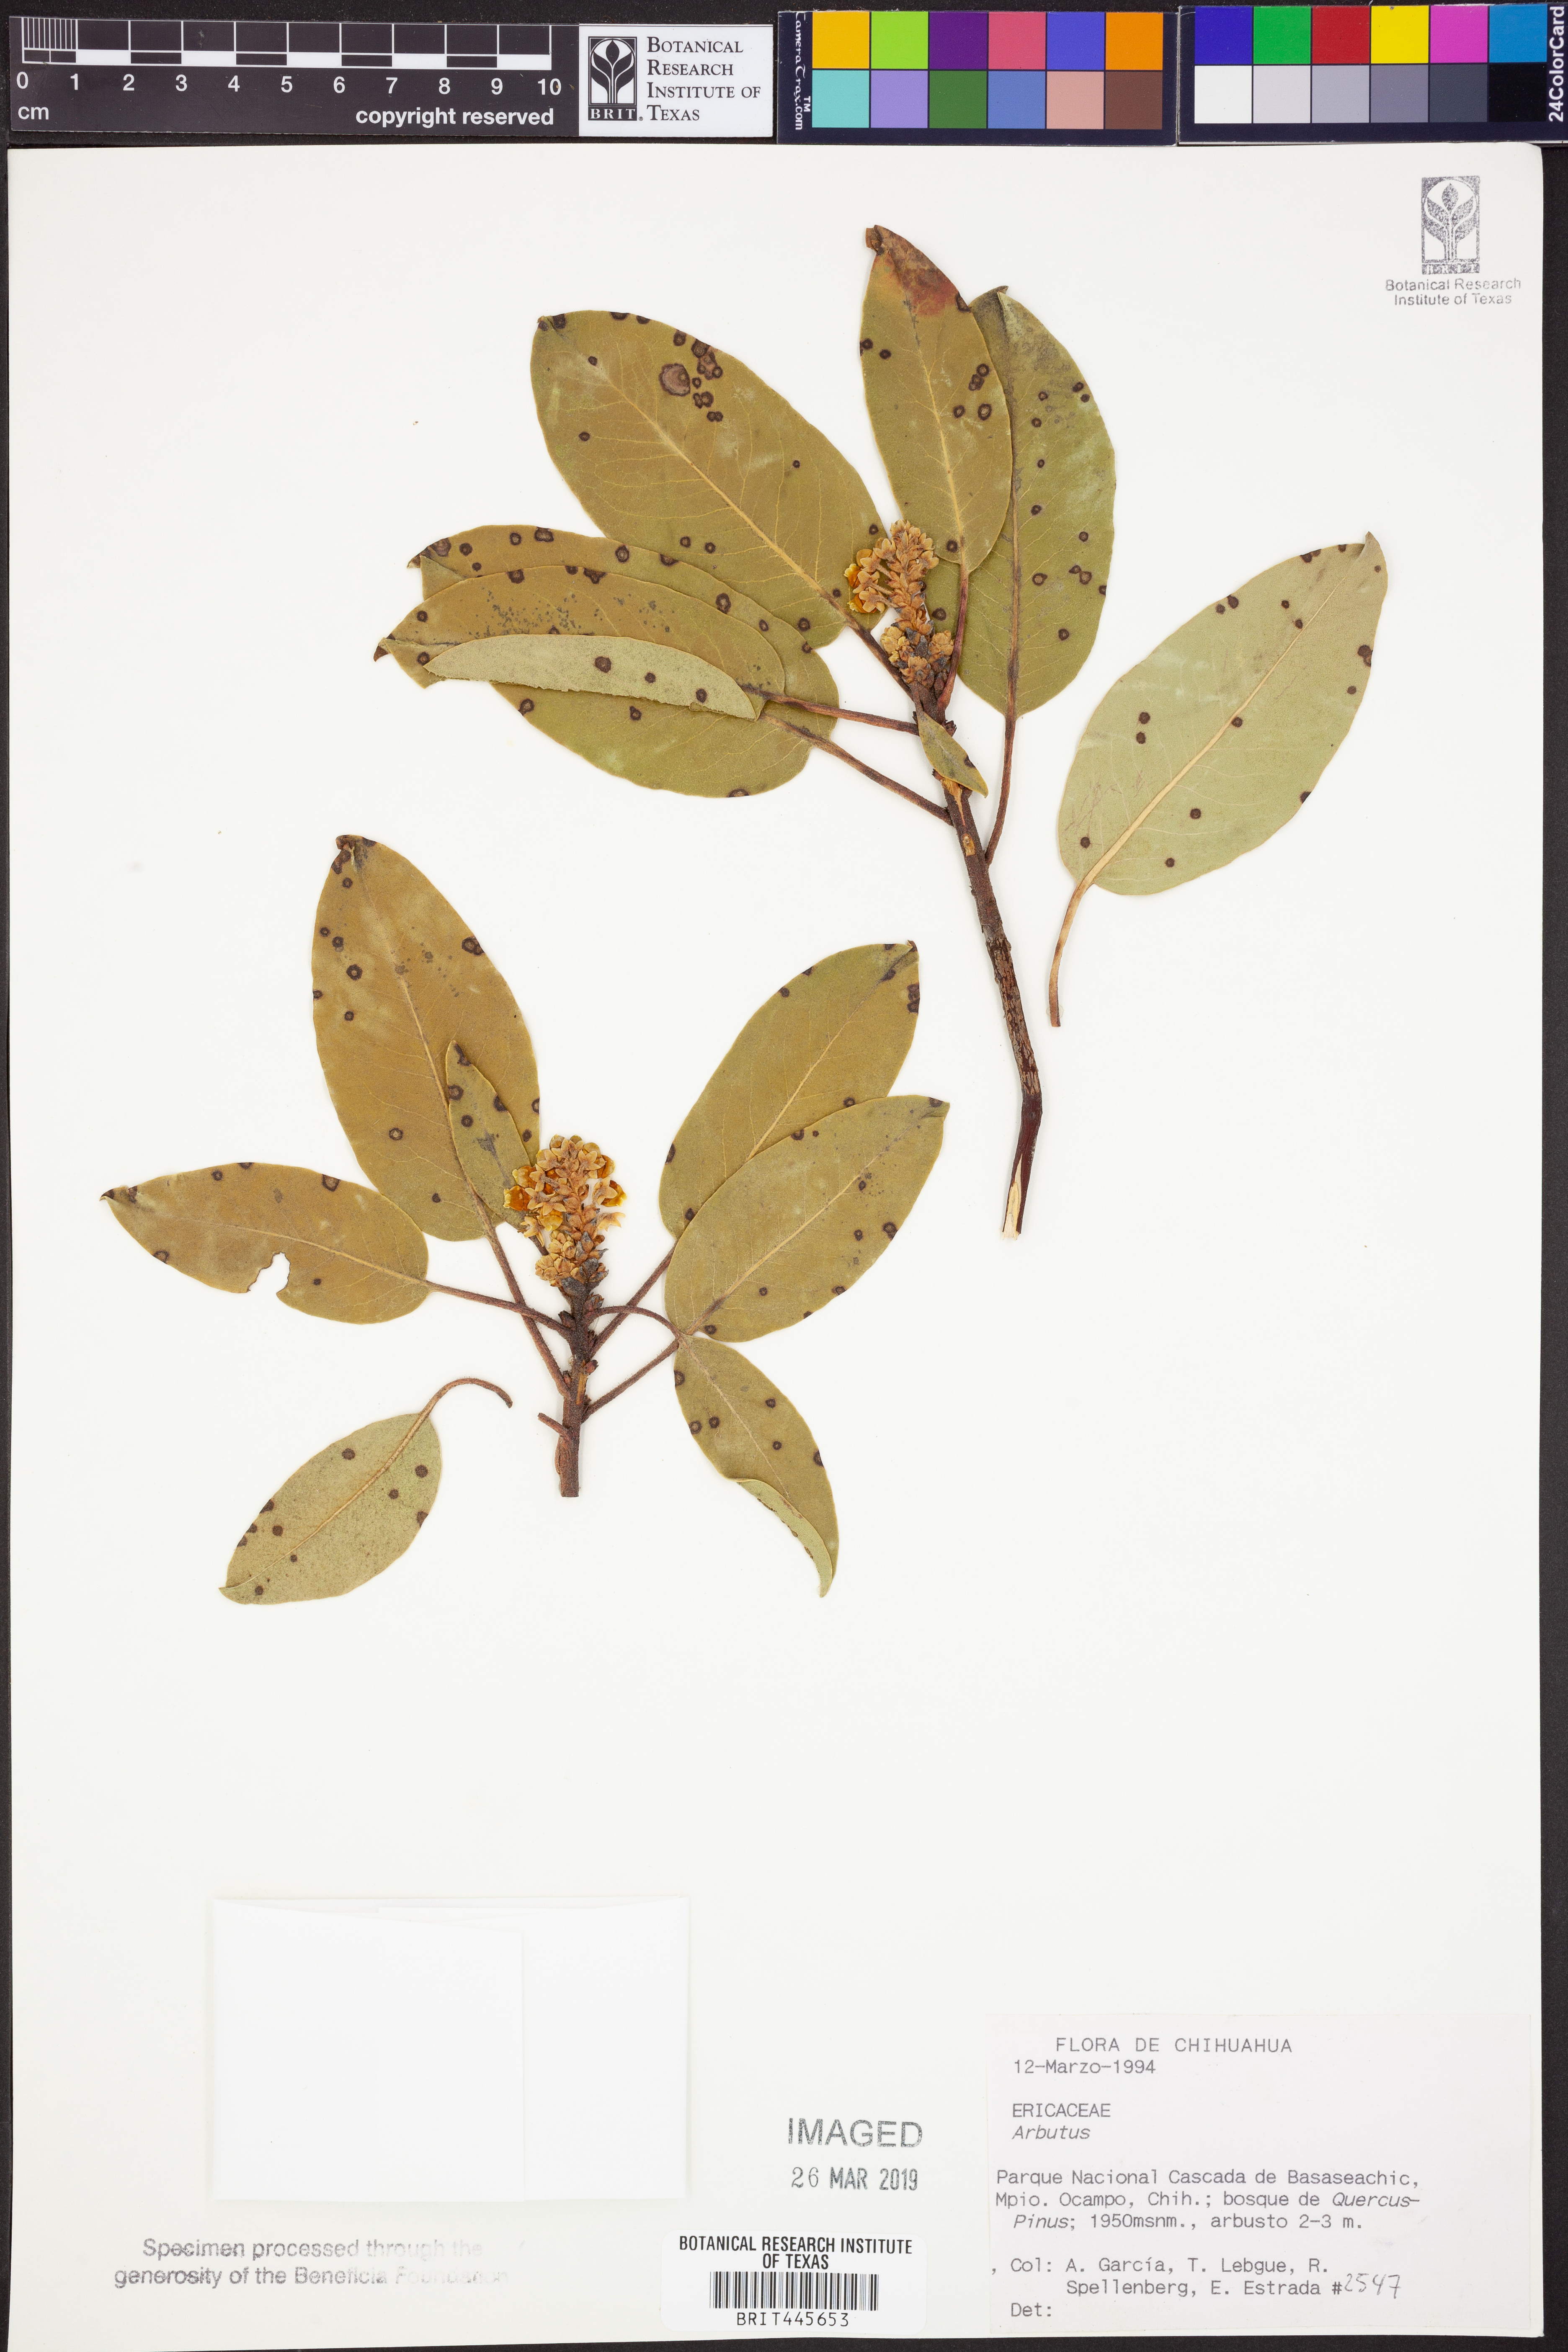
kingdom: Plantae
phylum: Tracheophyta
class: Magnoliopsida
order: Ericales
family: Ericaceae
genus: Arbutus
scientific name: Arbutus
